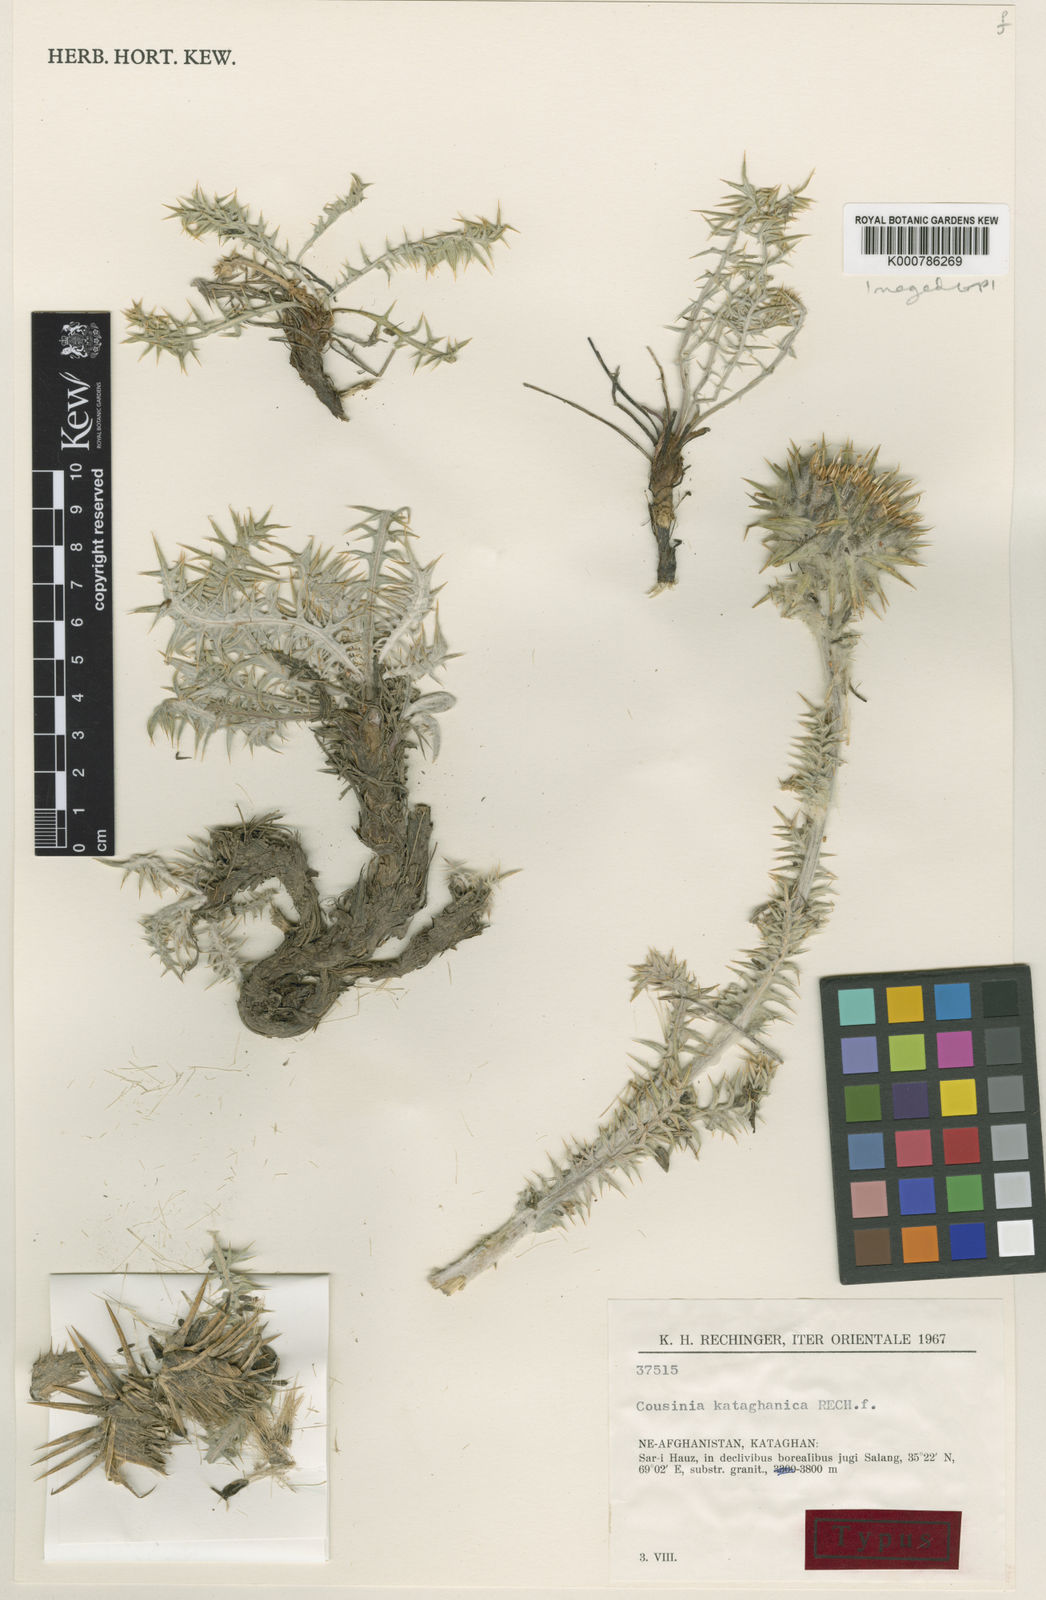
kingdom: Plantae
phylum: Tracheophyta
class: Magnoliopsida
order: Asterales
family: Asteraceae
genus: Cousinia
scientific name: Cousinia kataghanica
